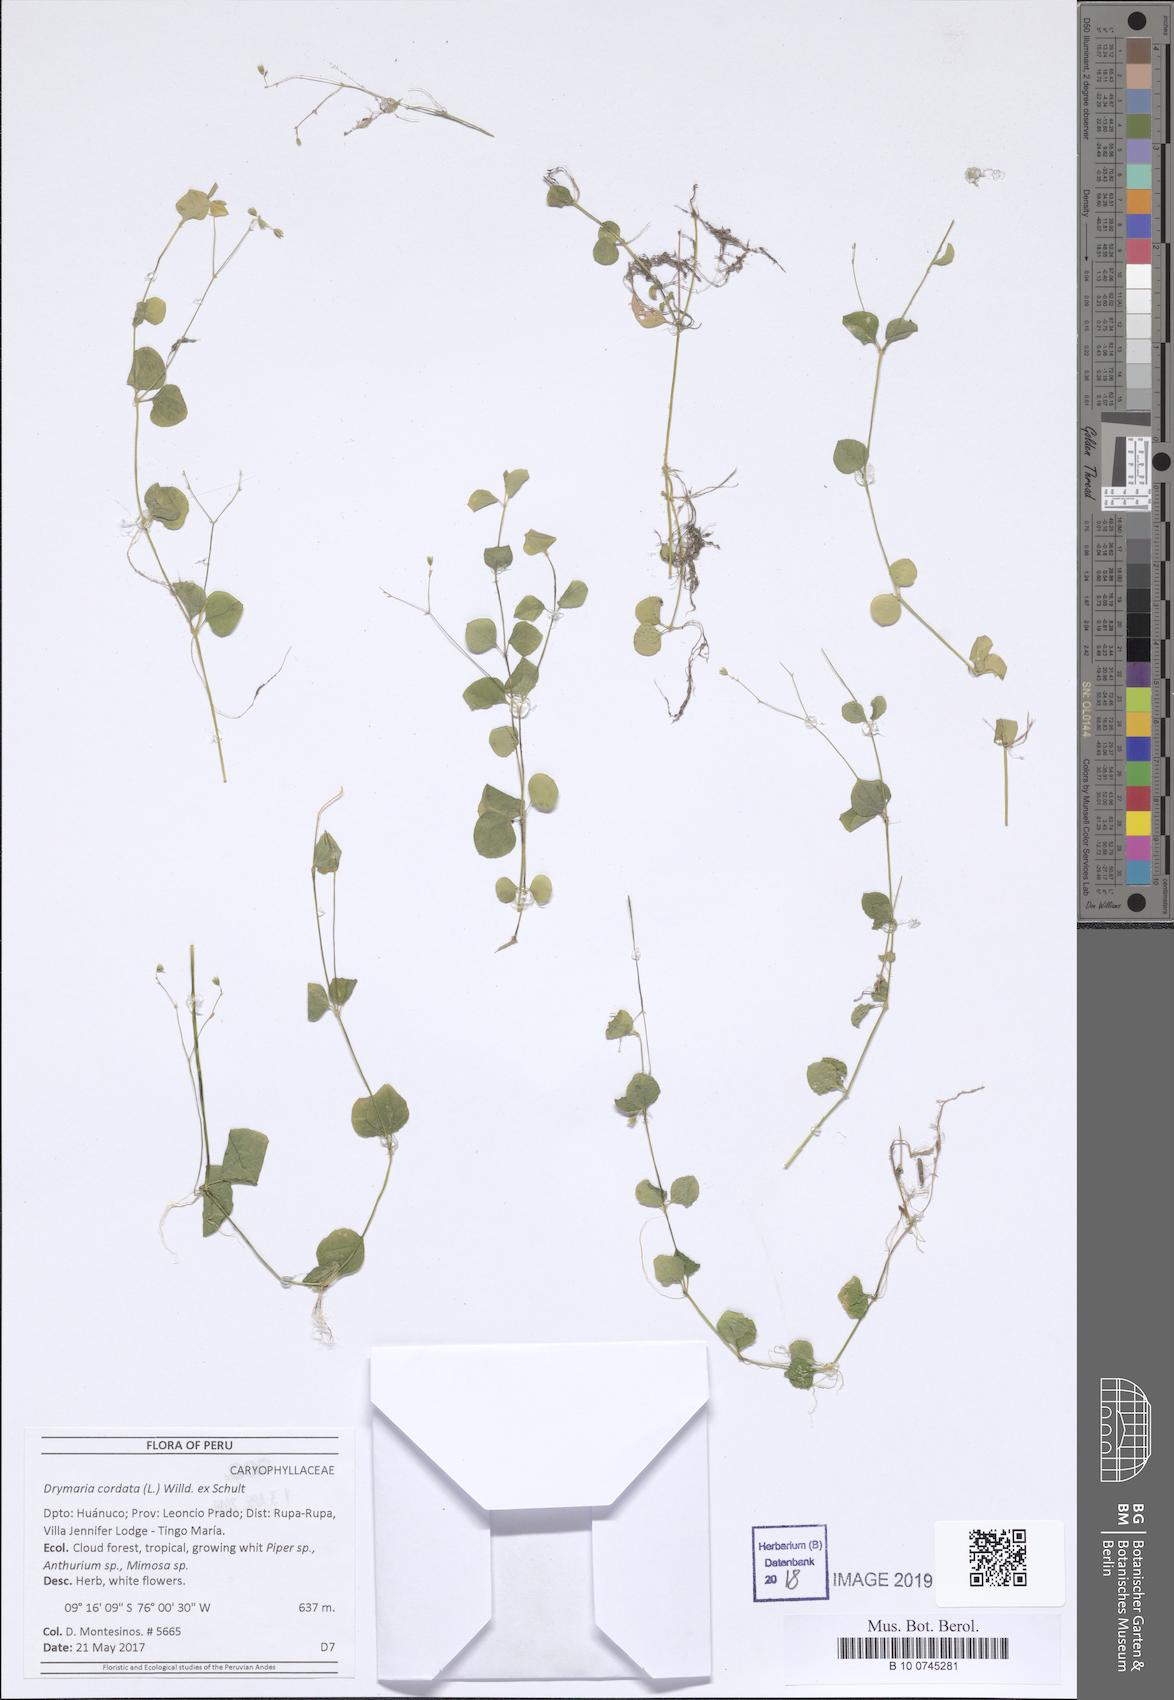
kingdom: Plantae
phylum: Tracheophyta
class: Magnoliopsida
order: Caryophyllales
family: Caryophyllaceae
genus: Drymaria
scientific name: Drymaria cordata
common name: Whitesnow
